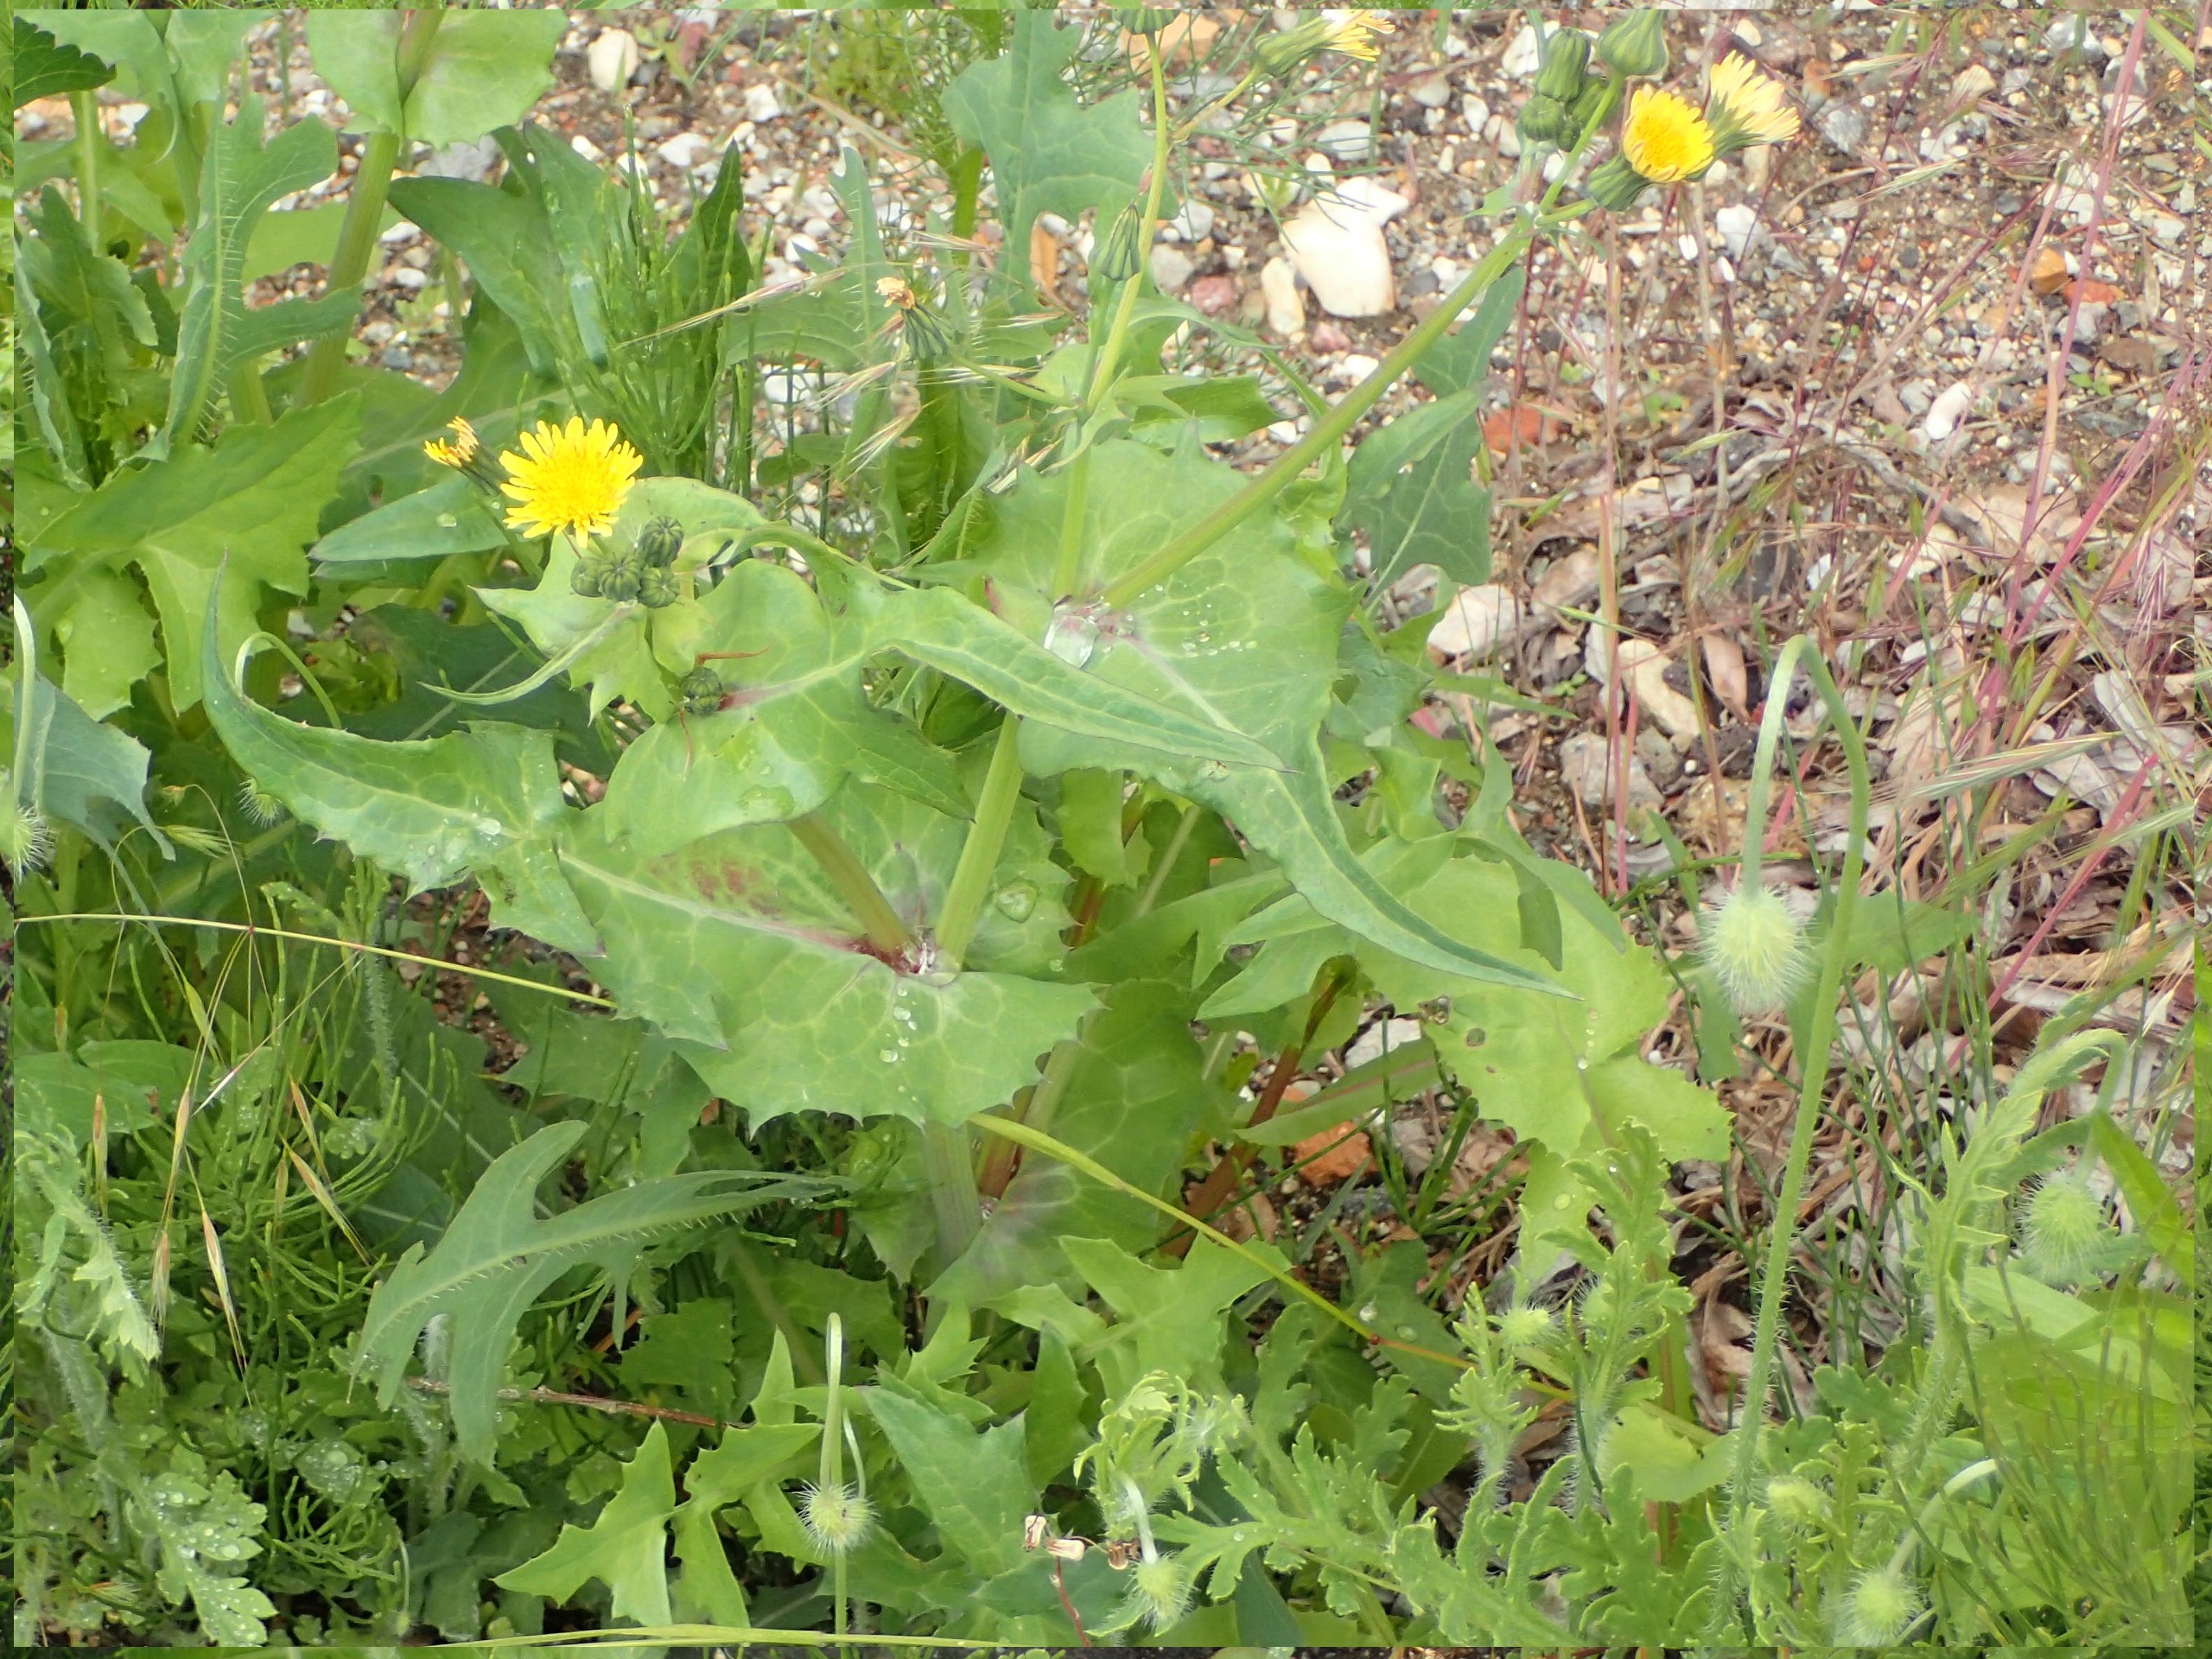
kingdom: Plantae
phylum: Tracheophyta
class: Magnoliopsida
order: Asterales
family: Asteraceae
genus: Sonchus
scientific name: Sonchus oleraceus
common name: Almindelig svinemælk
